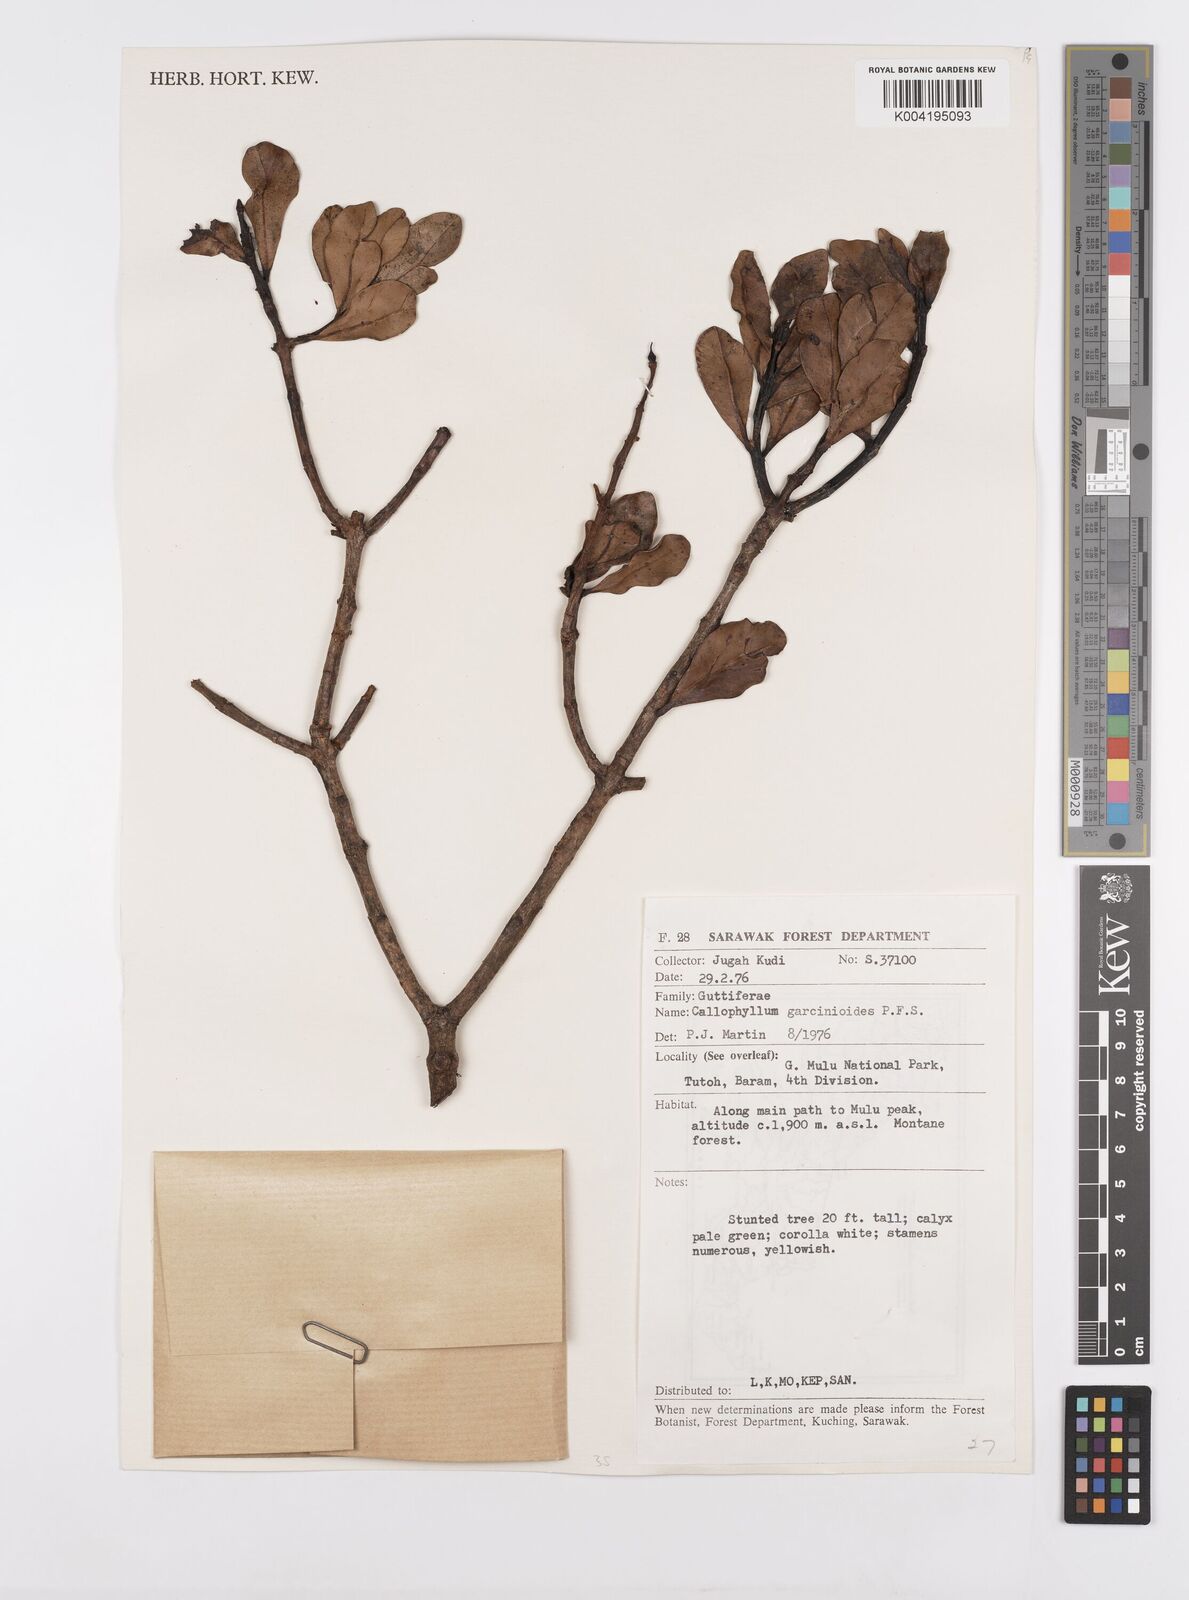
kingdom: Plantae
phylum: Tracheophyta
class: Magnoliopsida
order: Malpighiales
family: Calophyllaceae
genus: Calophyllum
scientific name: Calophyllum garcinioides
